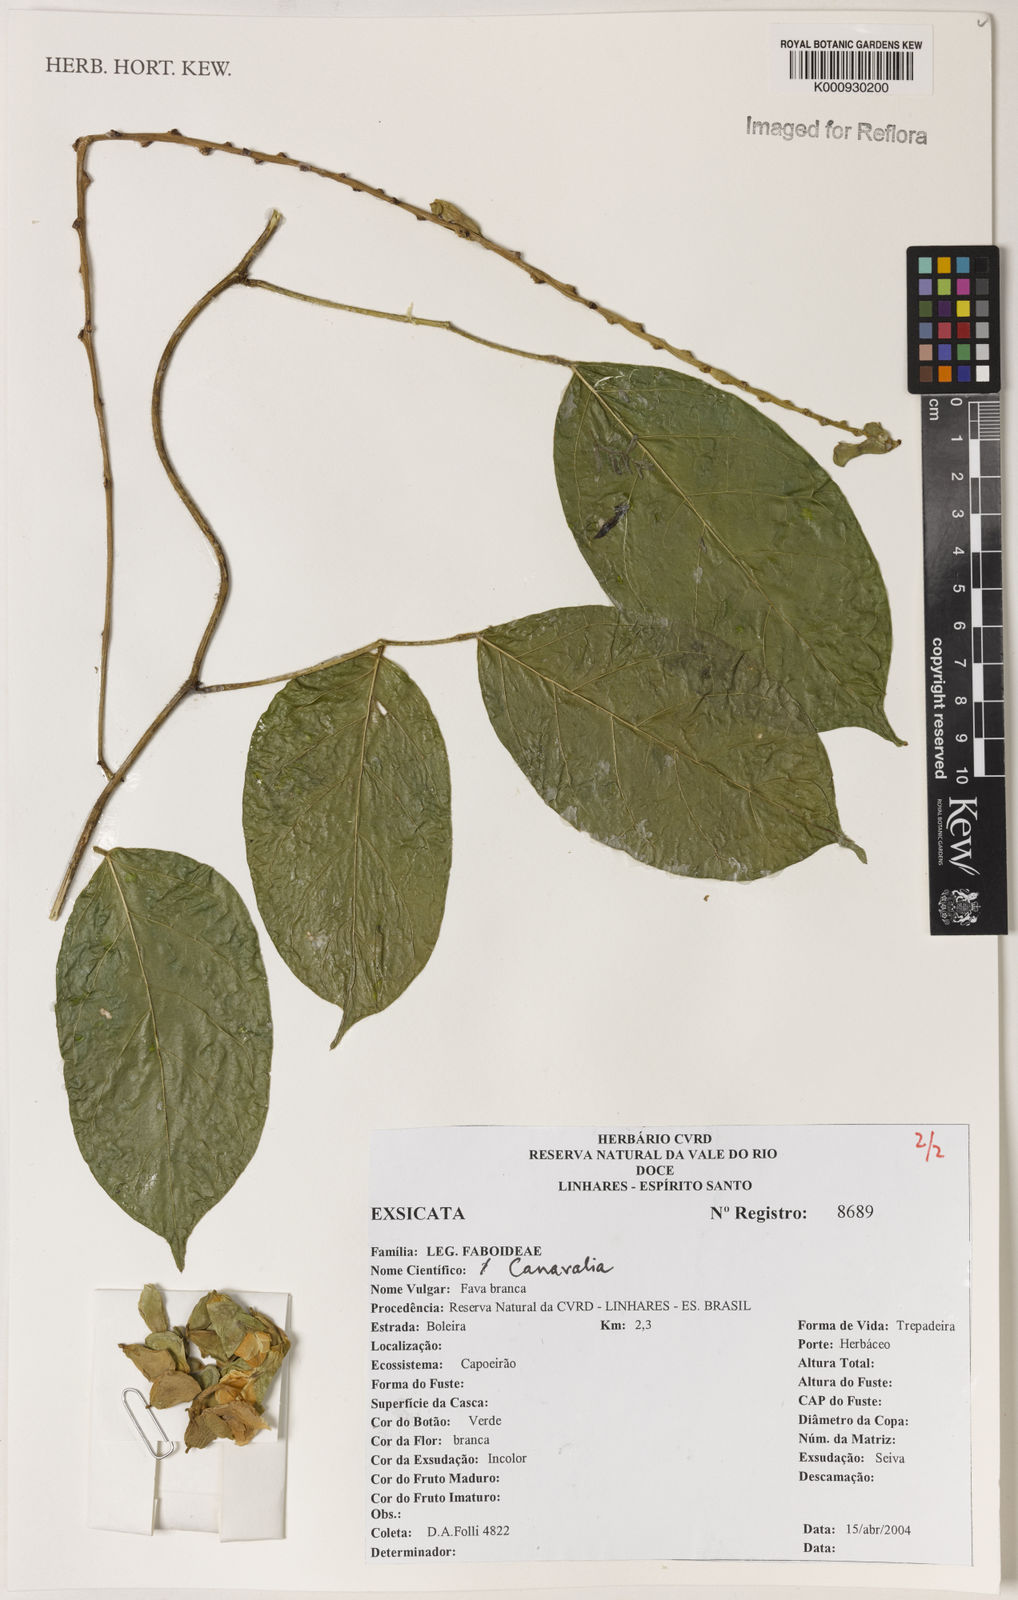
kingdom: Plantae
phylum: Tracheophyta
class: Magnoliopsida
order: Fabales
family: Fabaceae
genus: Canavalia
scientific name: Canavalia
